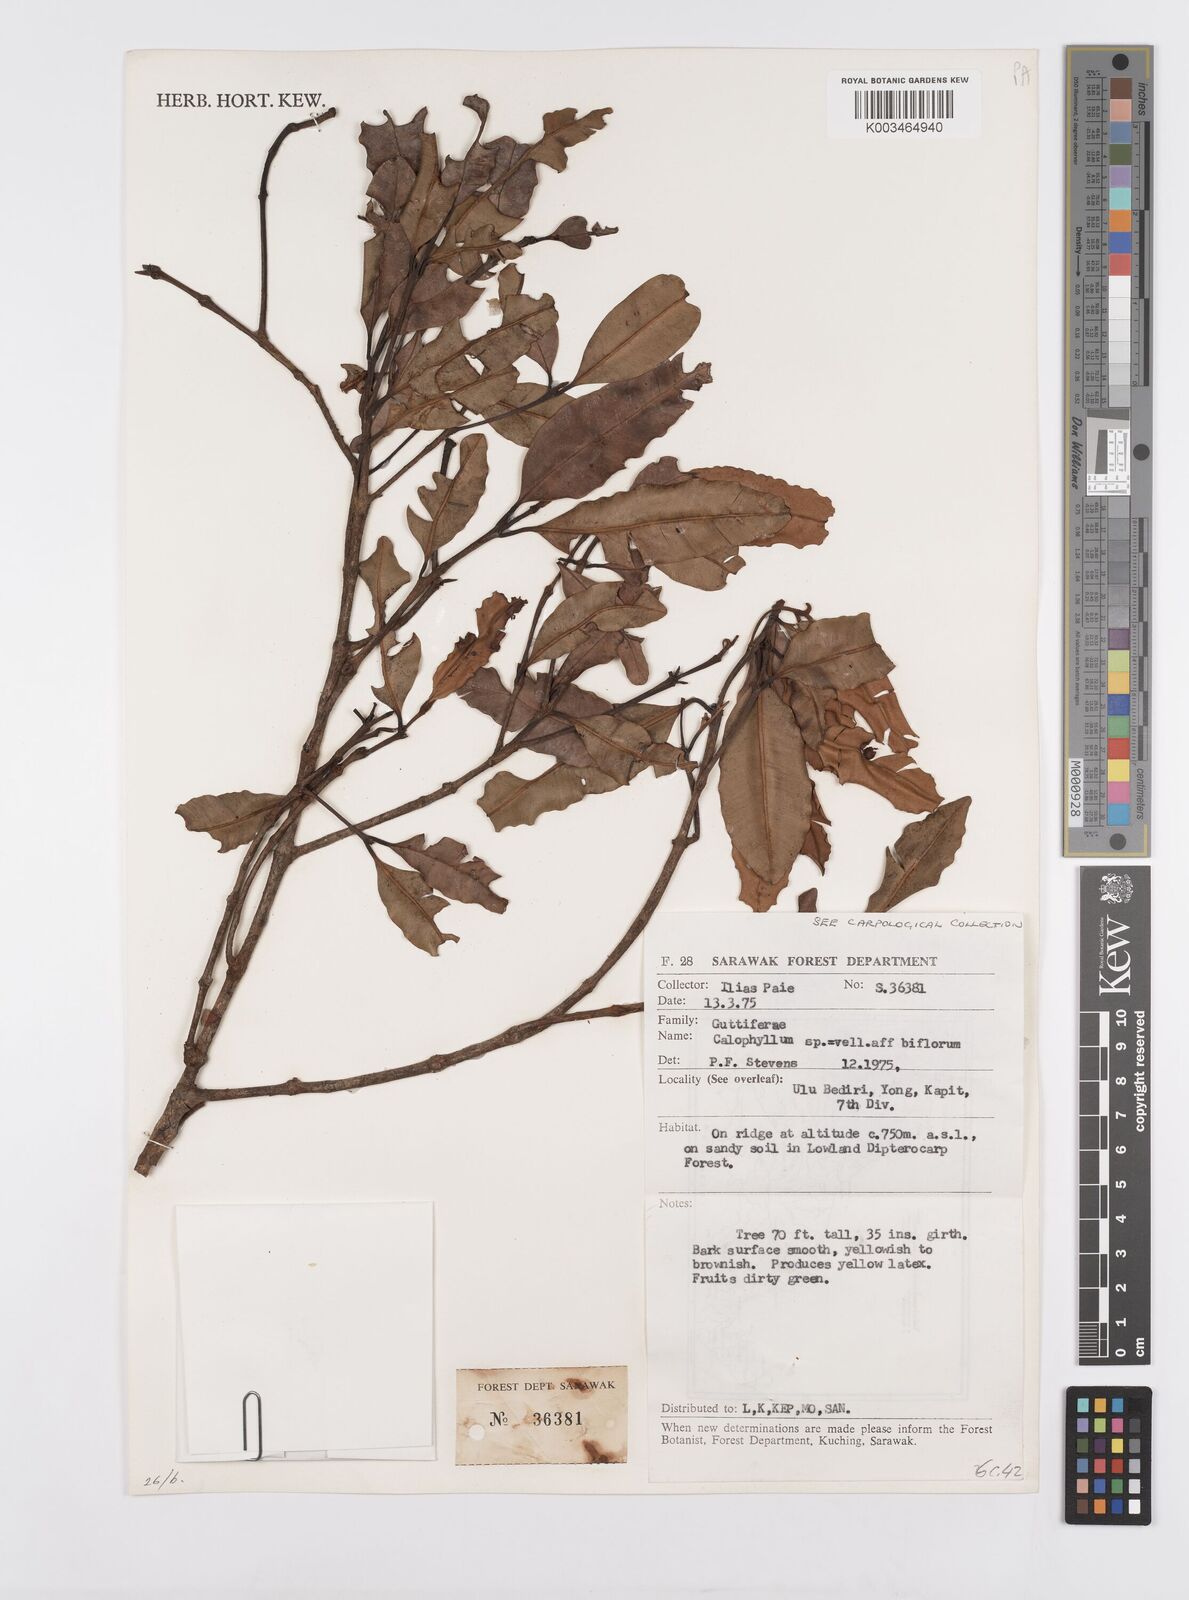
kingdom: Plantae
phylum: Tracheophyta
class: Magnoliopsida
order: Malpighiales
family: Calophyllaceae
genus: Calophyllum
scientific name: Calophyllum biflorum
